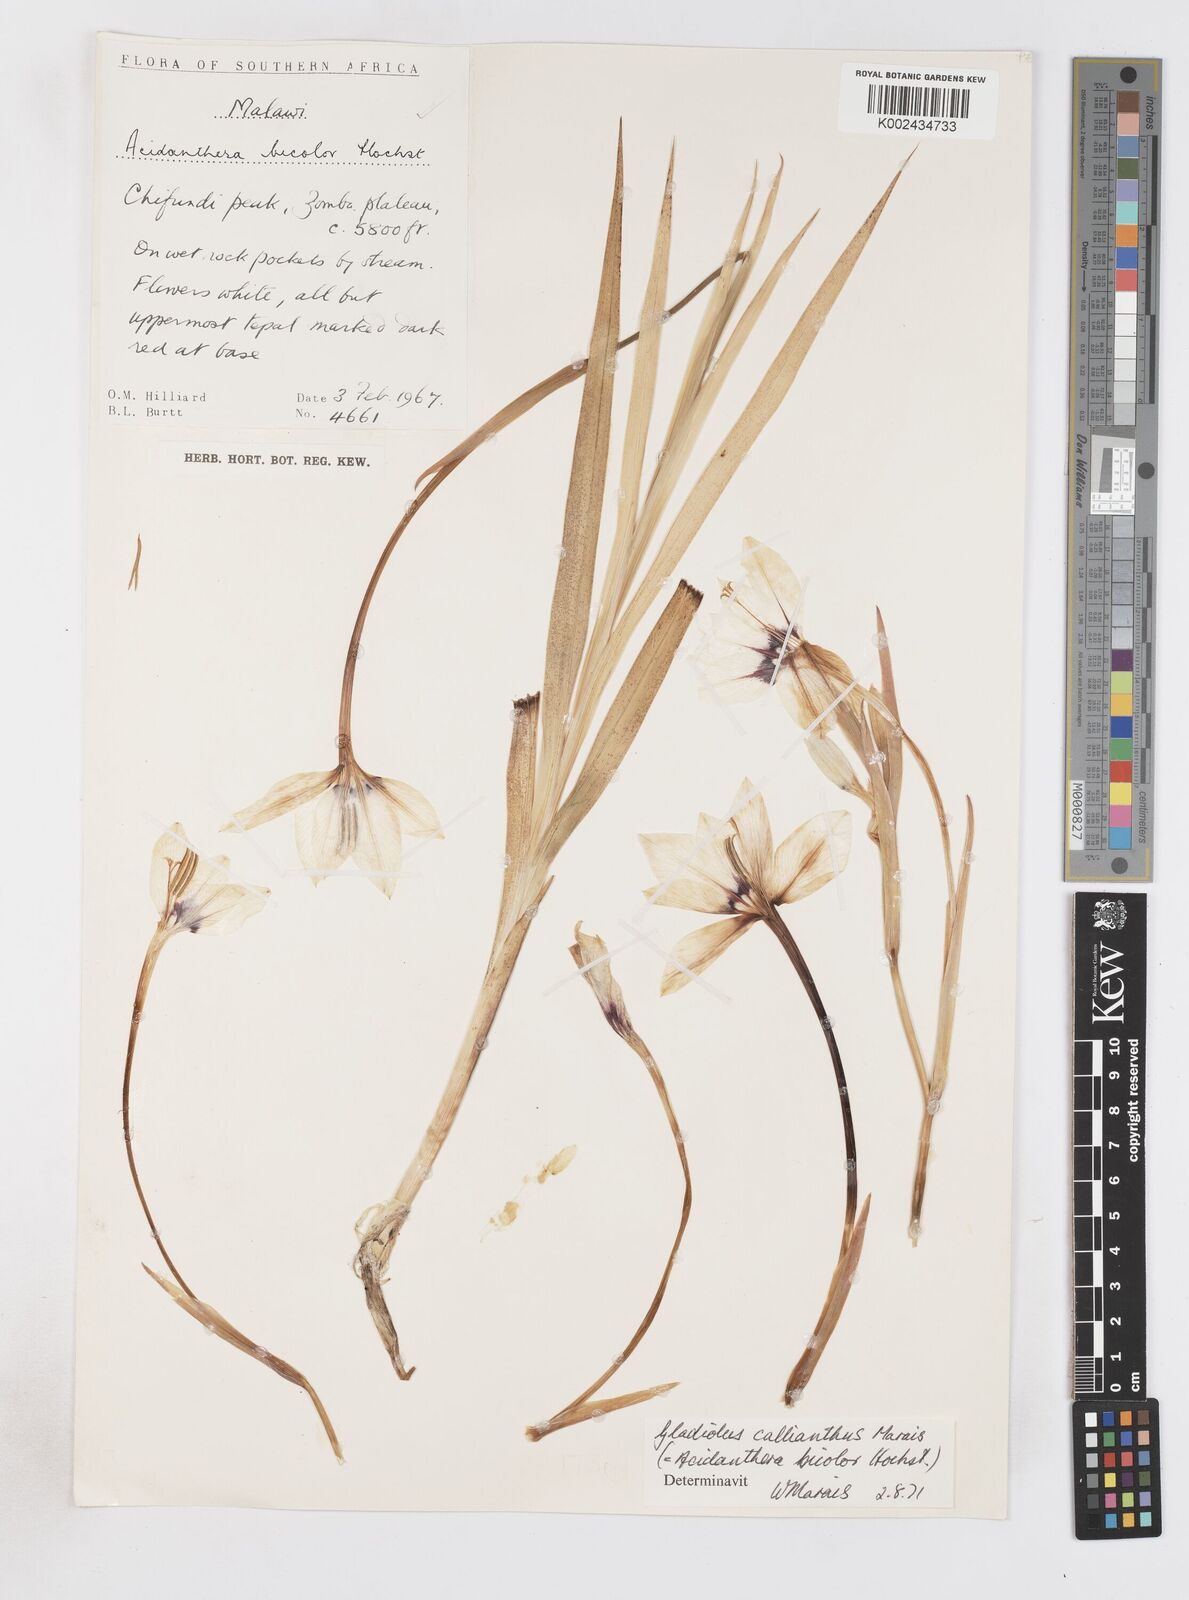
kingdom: Plantae
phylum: Tracheophyta
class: Liliopsida
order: Asparagales
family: Iridaceae
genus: Gladiolus
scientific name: Gladiolus murielae
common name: Acidanthera
